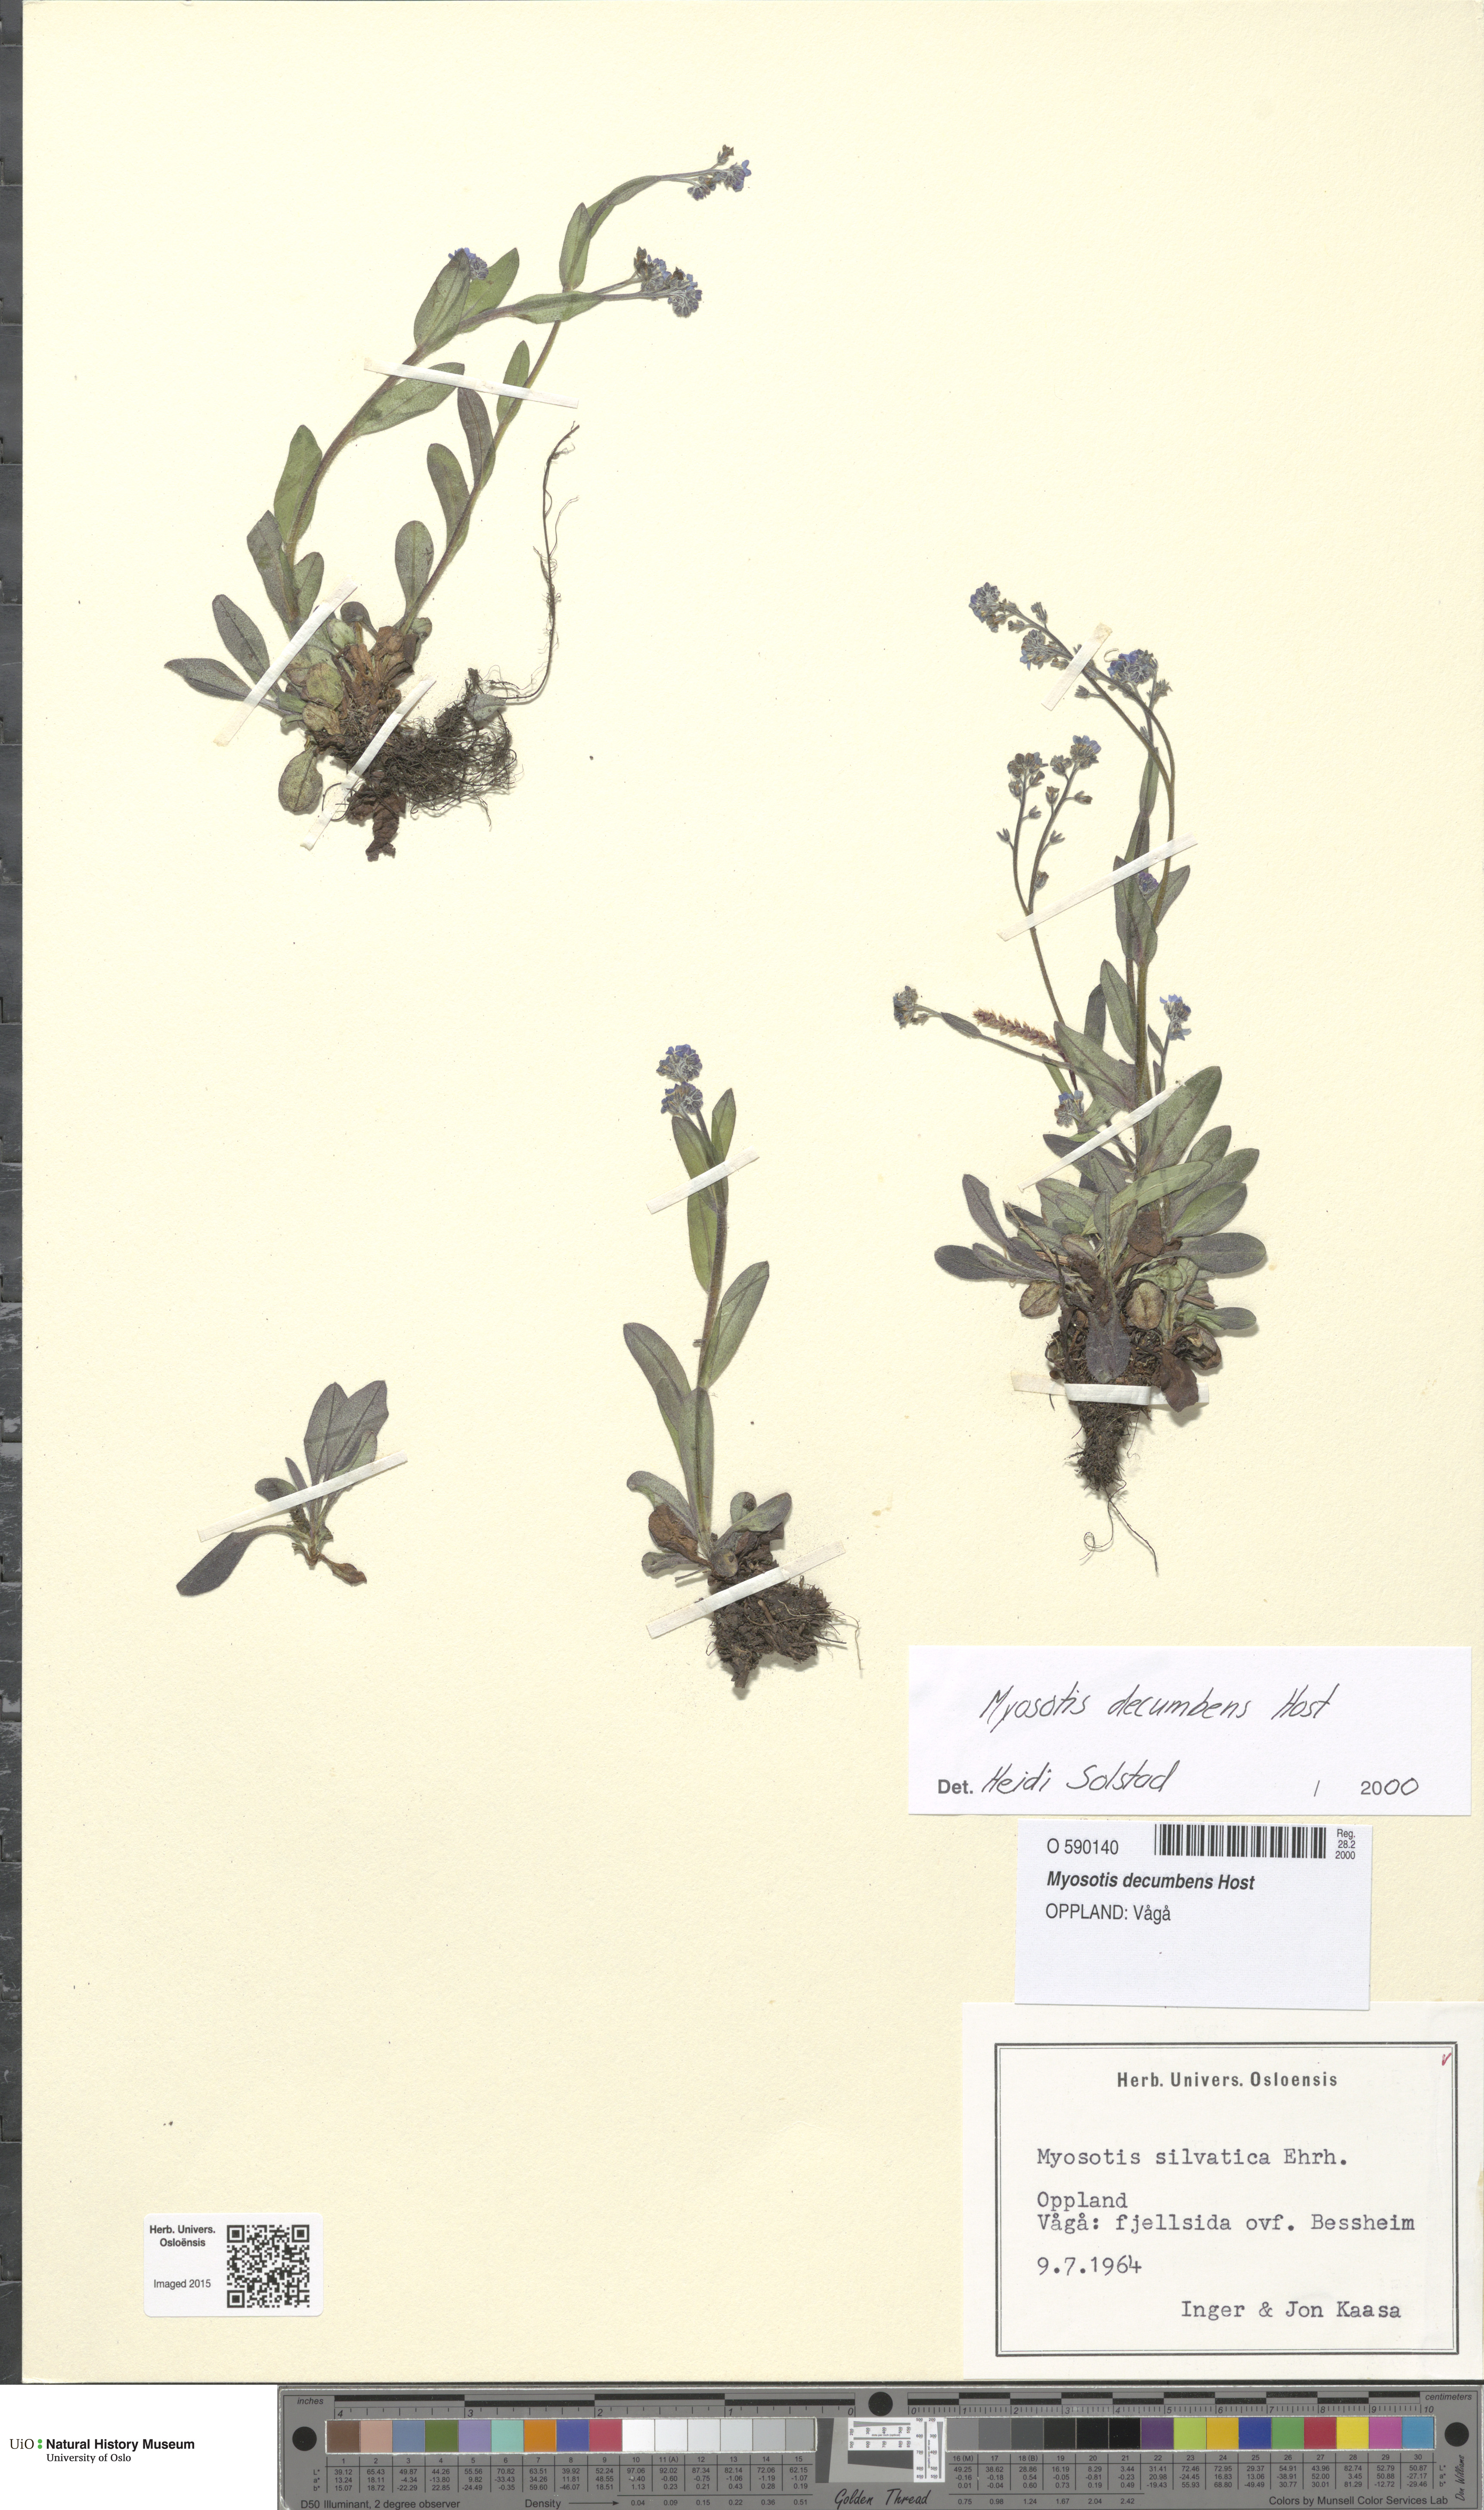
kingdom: Plantae
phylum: Tracheophyta
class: Magnoliopsida
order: Boraginales
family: Boraginaceae
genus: Myosotis
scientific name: Myosotis decumbens
